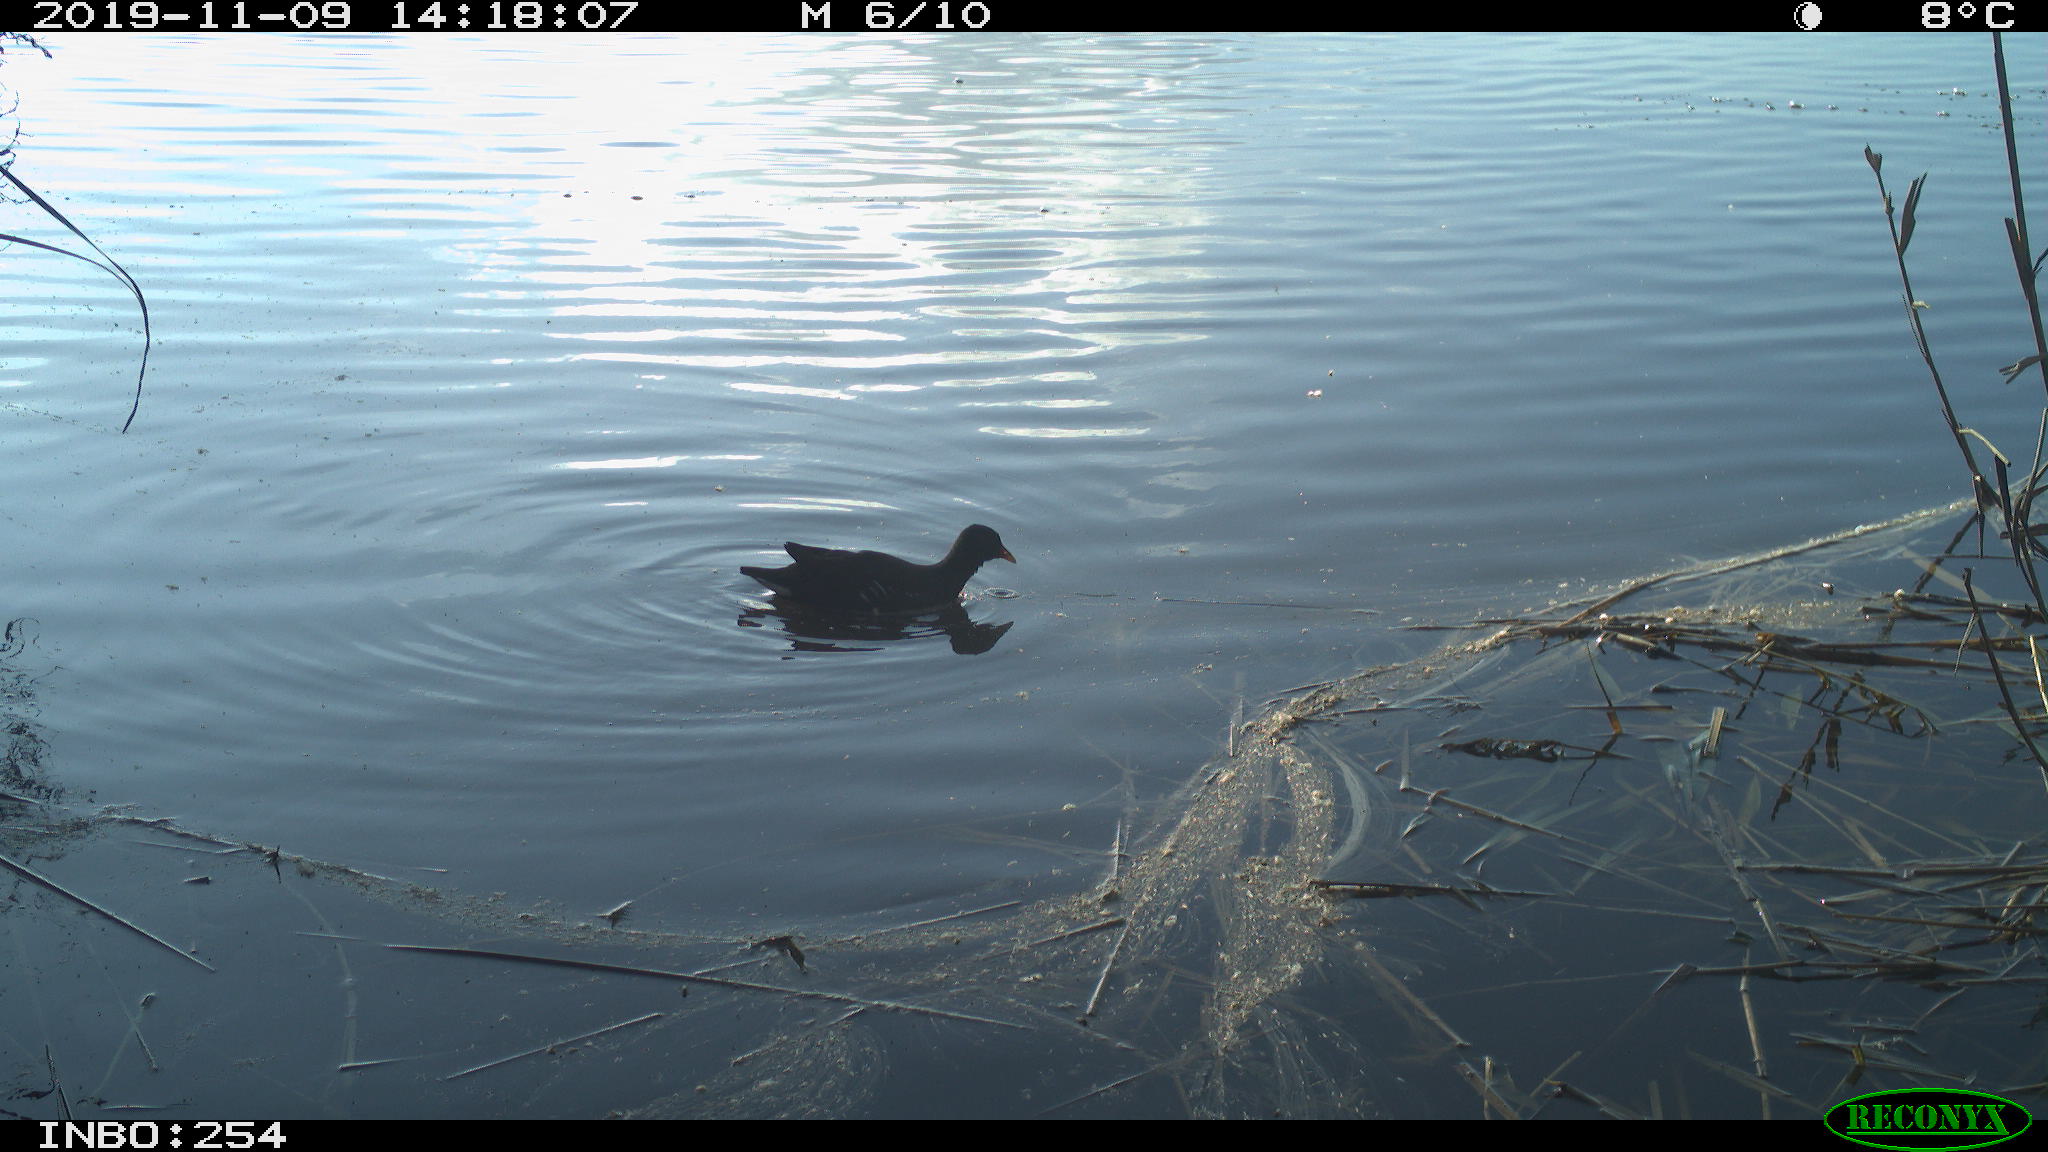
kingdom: Animalia
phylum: Chordata
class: Aves
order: Gruiformes
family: Rallidae
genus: Gallinula
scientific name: Gallinula chloropus
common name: Common moorhen
